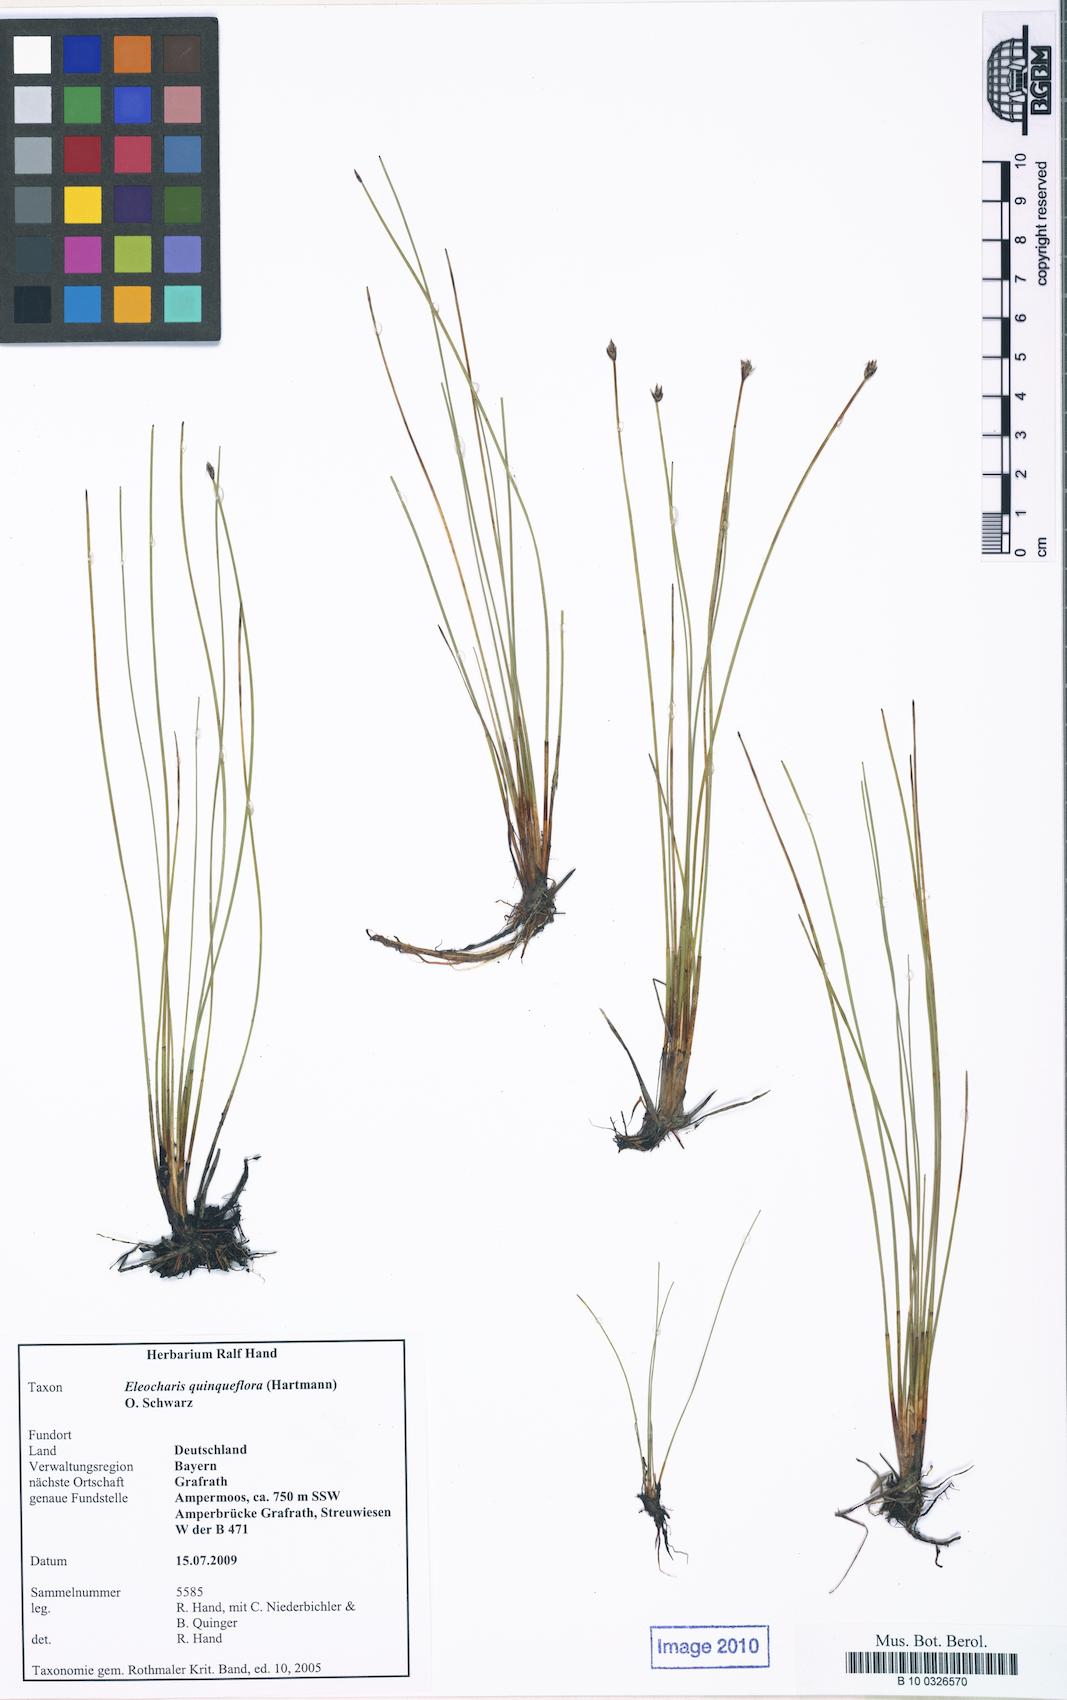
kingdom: Plantae
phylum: Tracheophyta
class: Liliopsida
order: Poales
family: Cyperaceae
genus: Eleocharis
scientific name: Eleocharis quinqueflora
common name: Few-flowered spike-rush
